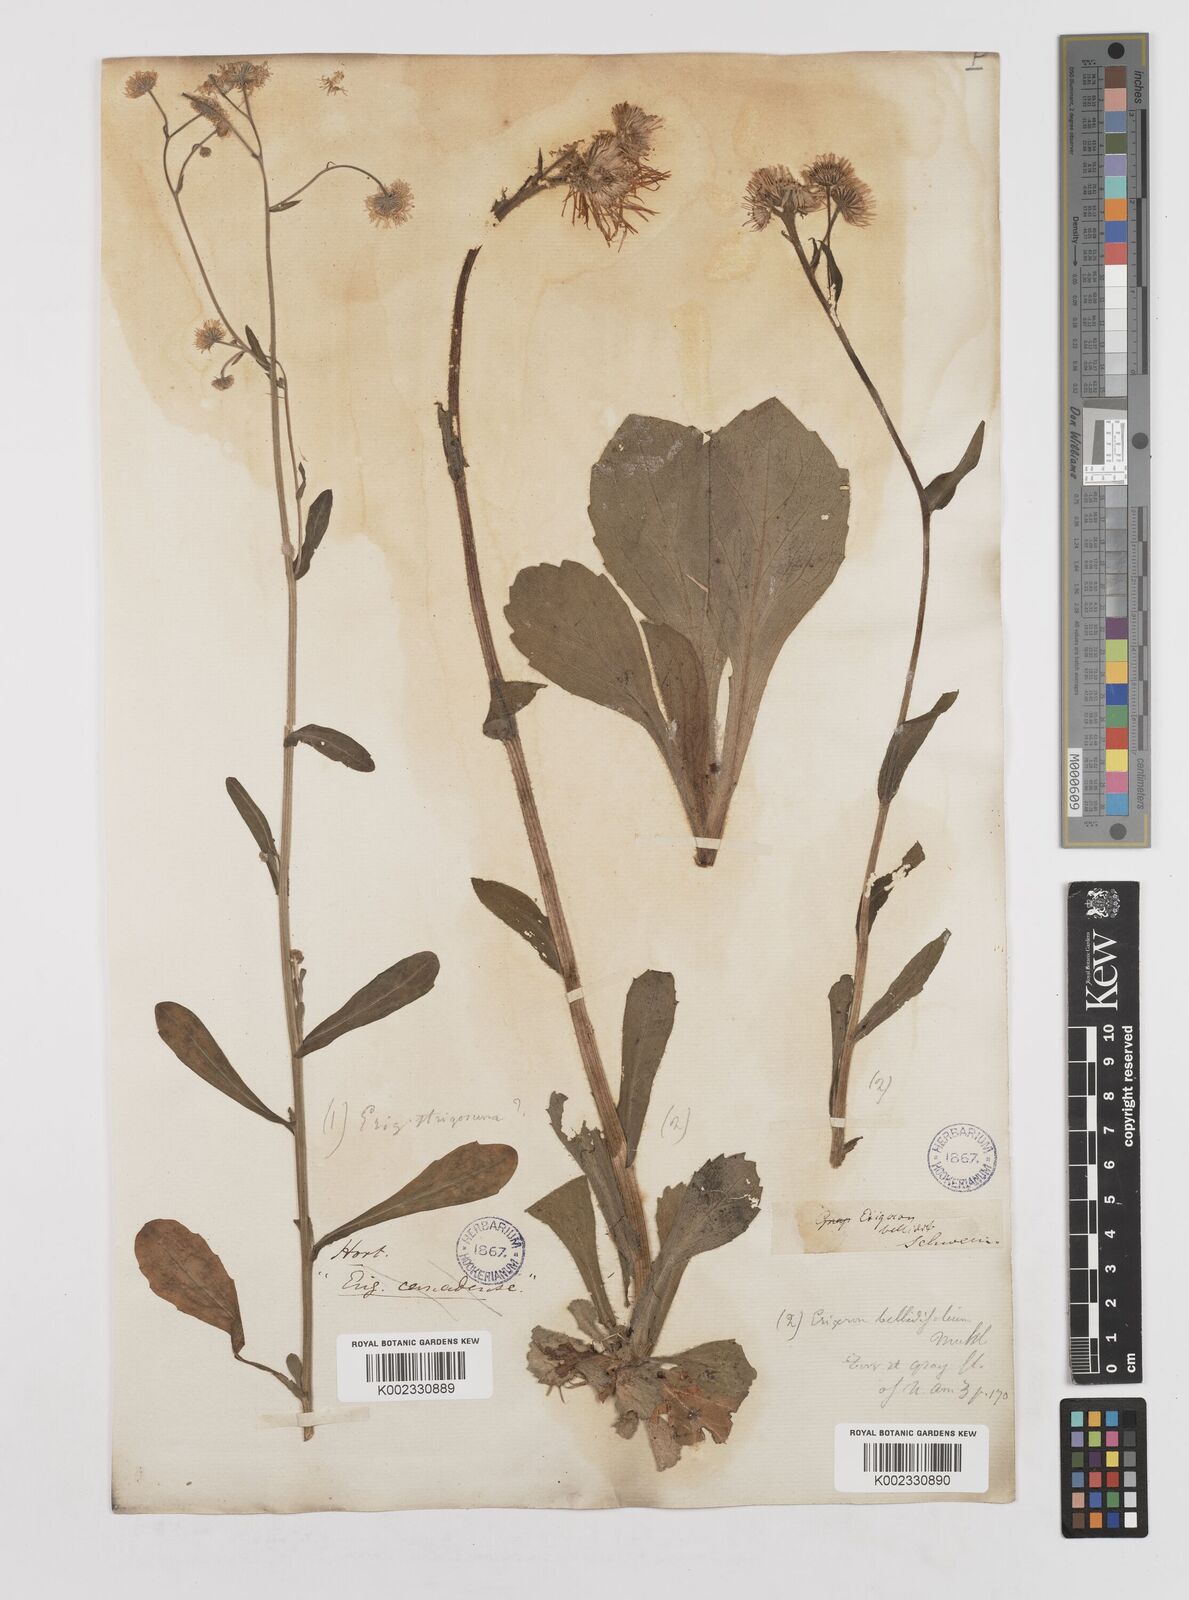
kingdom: Plantae
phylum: Tracheophyta
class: Magnoliopsida
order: Asterales
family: Asteraceae
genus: Erigeron
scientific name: Erigeron pulchellus
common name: Hairy fleabane
